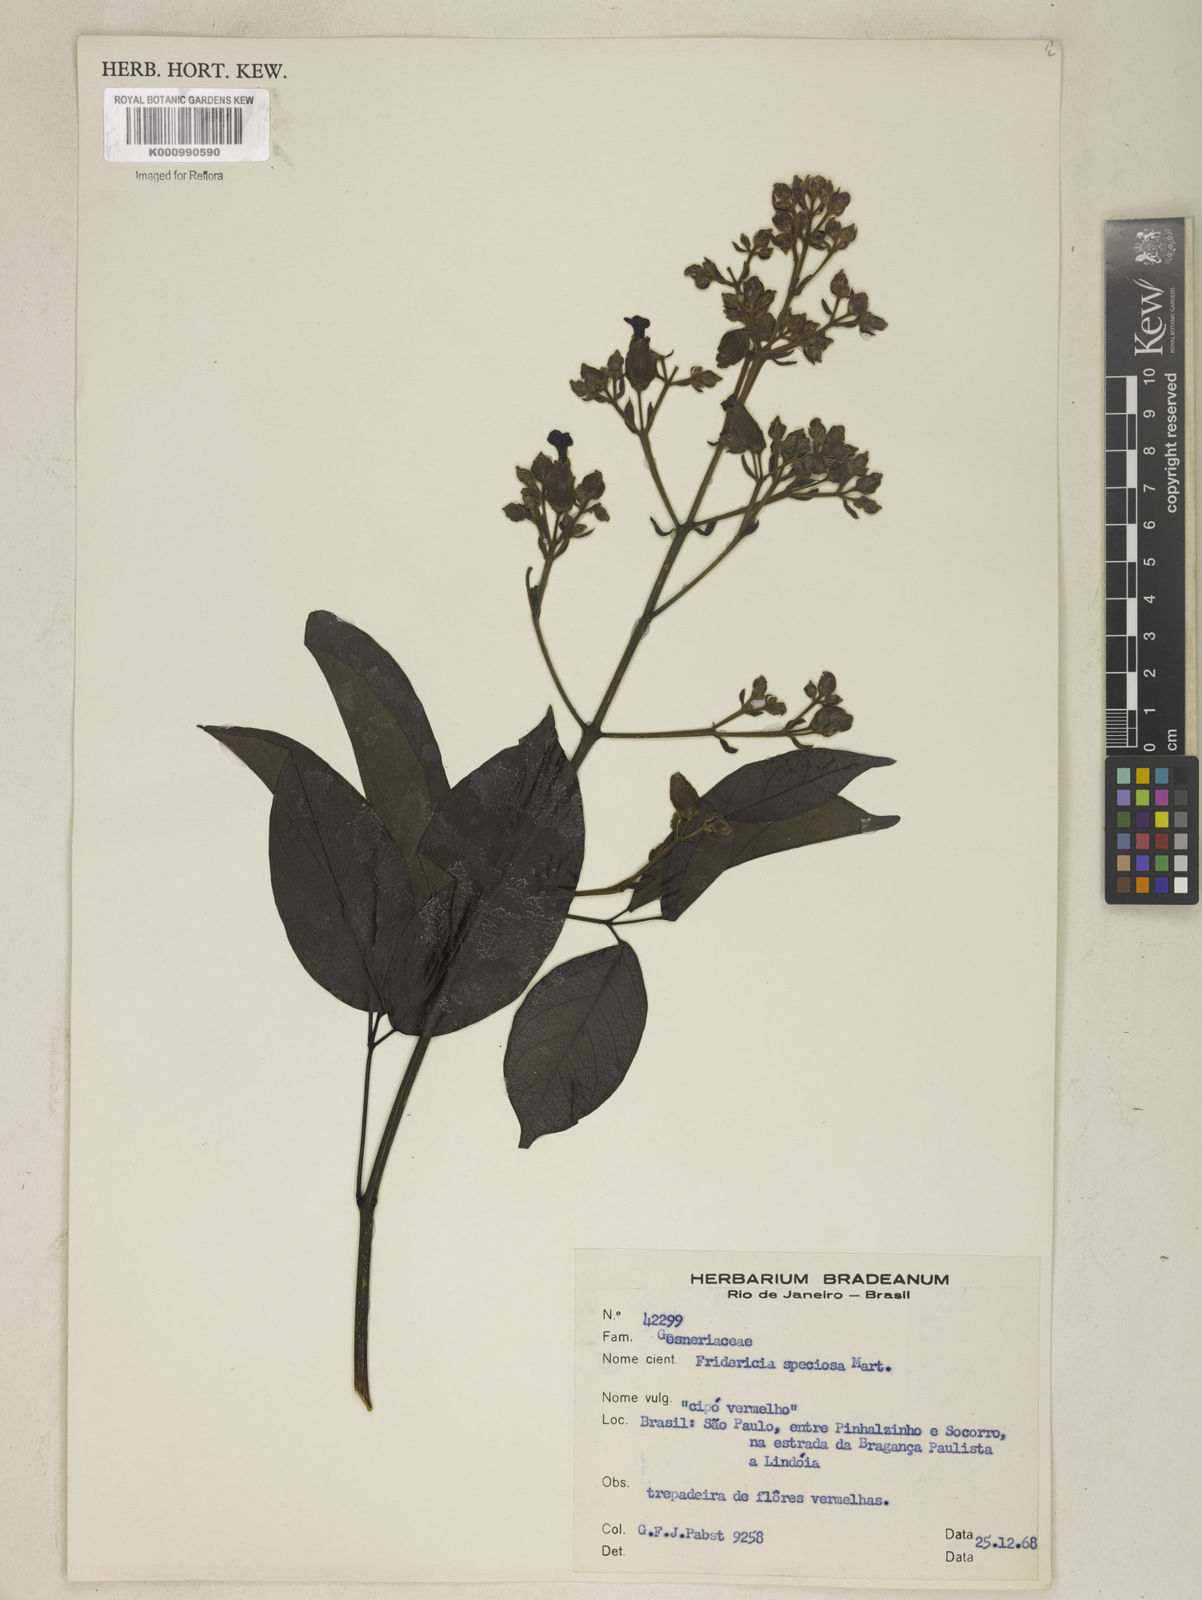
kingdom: Plantae
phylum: Tracheophyta
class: Magnoliopsida
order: Lamiales
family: Bignoniaceae
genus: Fridericia
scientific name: Fridericia speciosa
